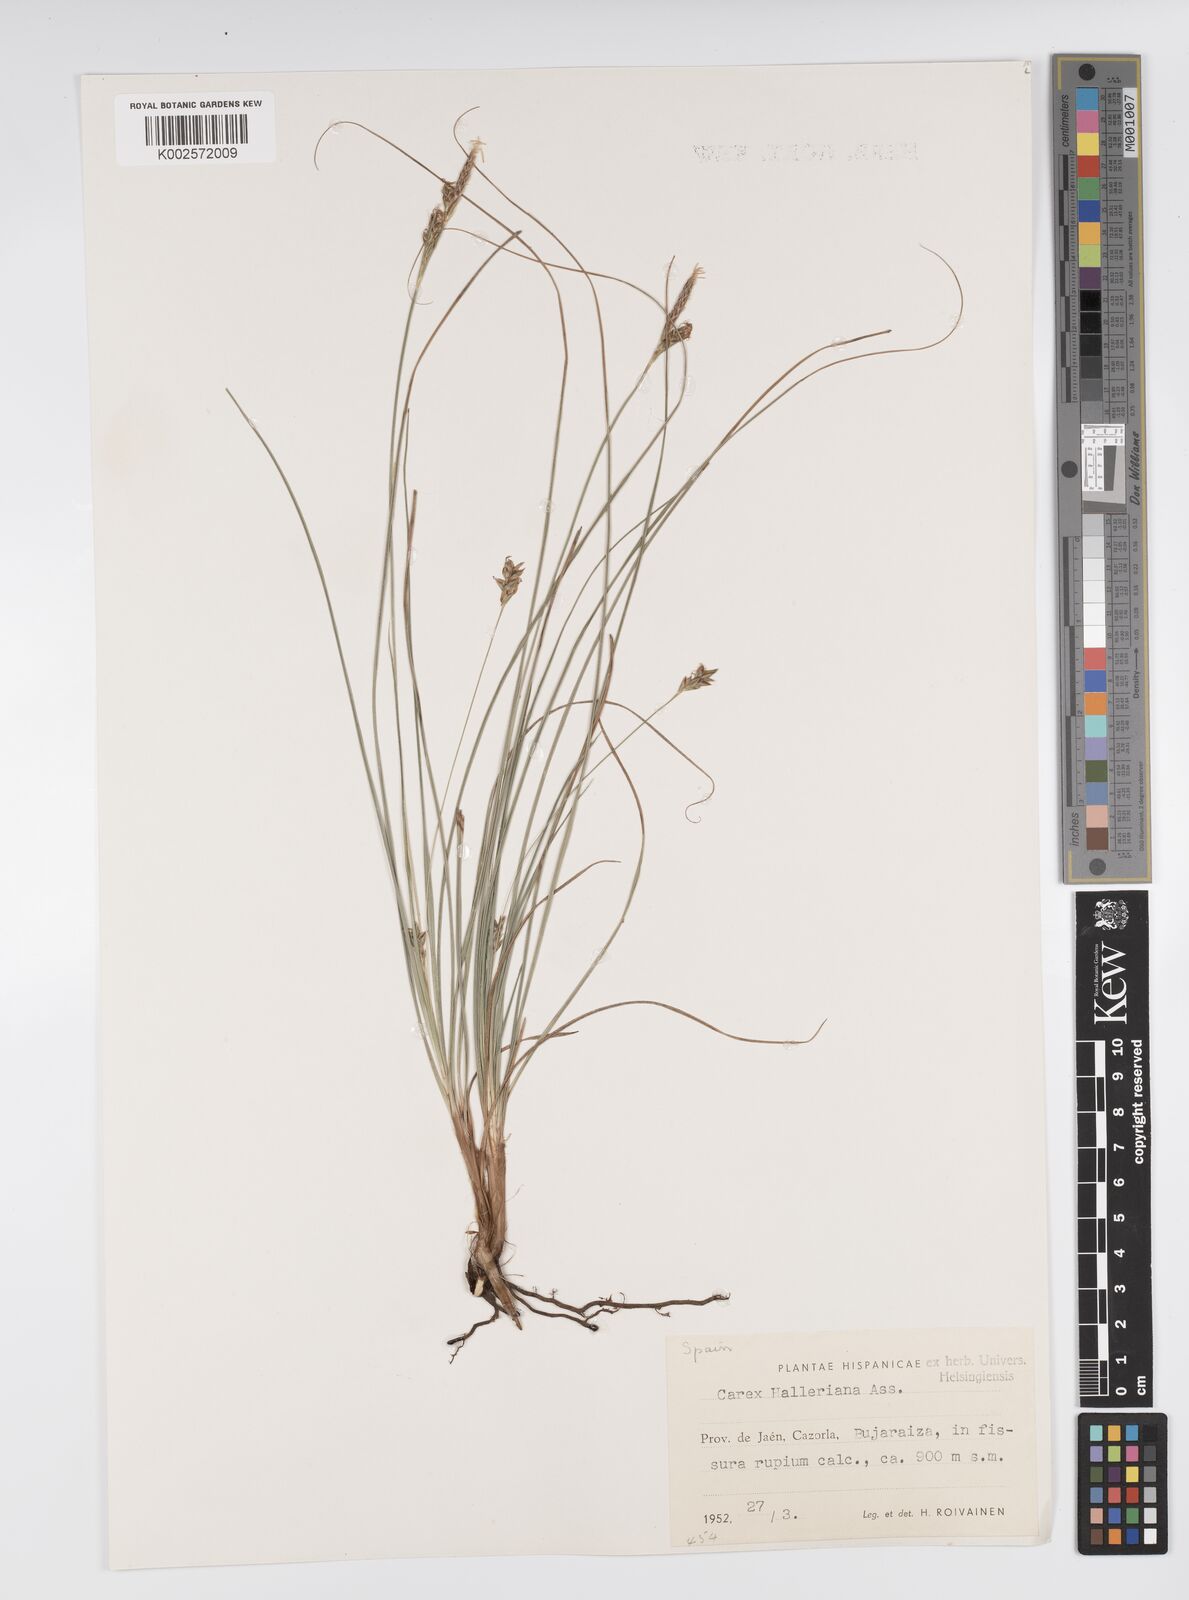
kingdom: Plantae
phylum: Tracheophyta
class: Liliopsida
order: Poales
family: Cyperaceae
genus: Carex
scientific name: Carex halleriana
